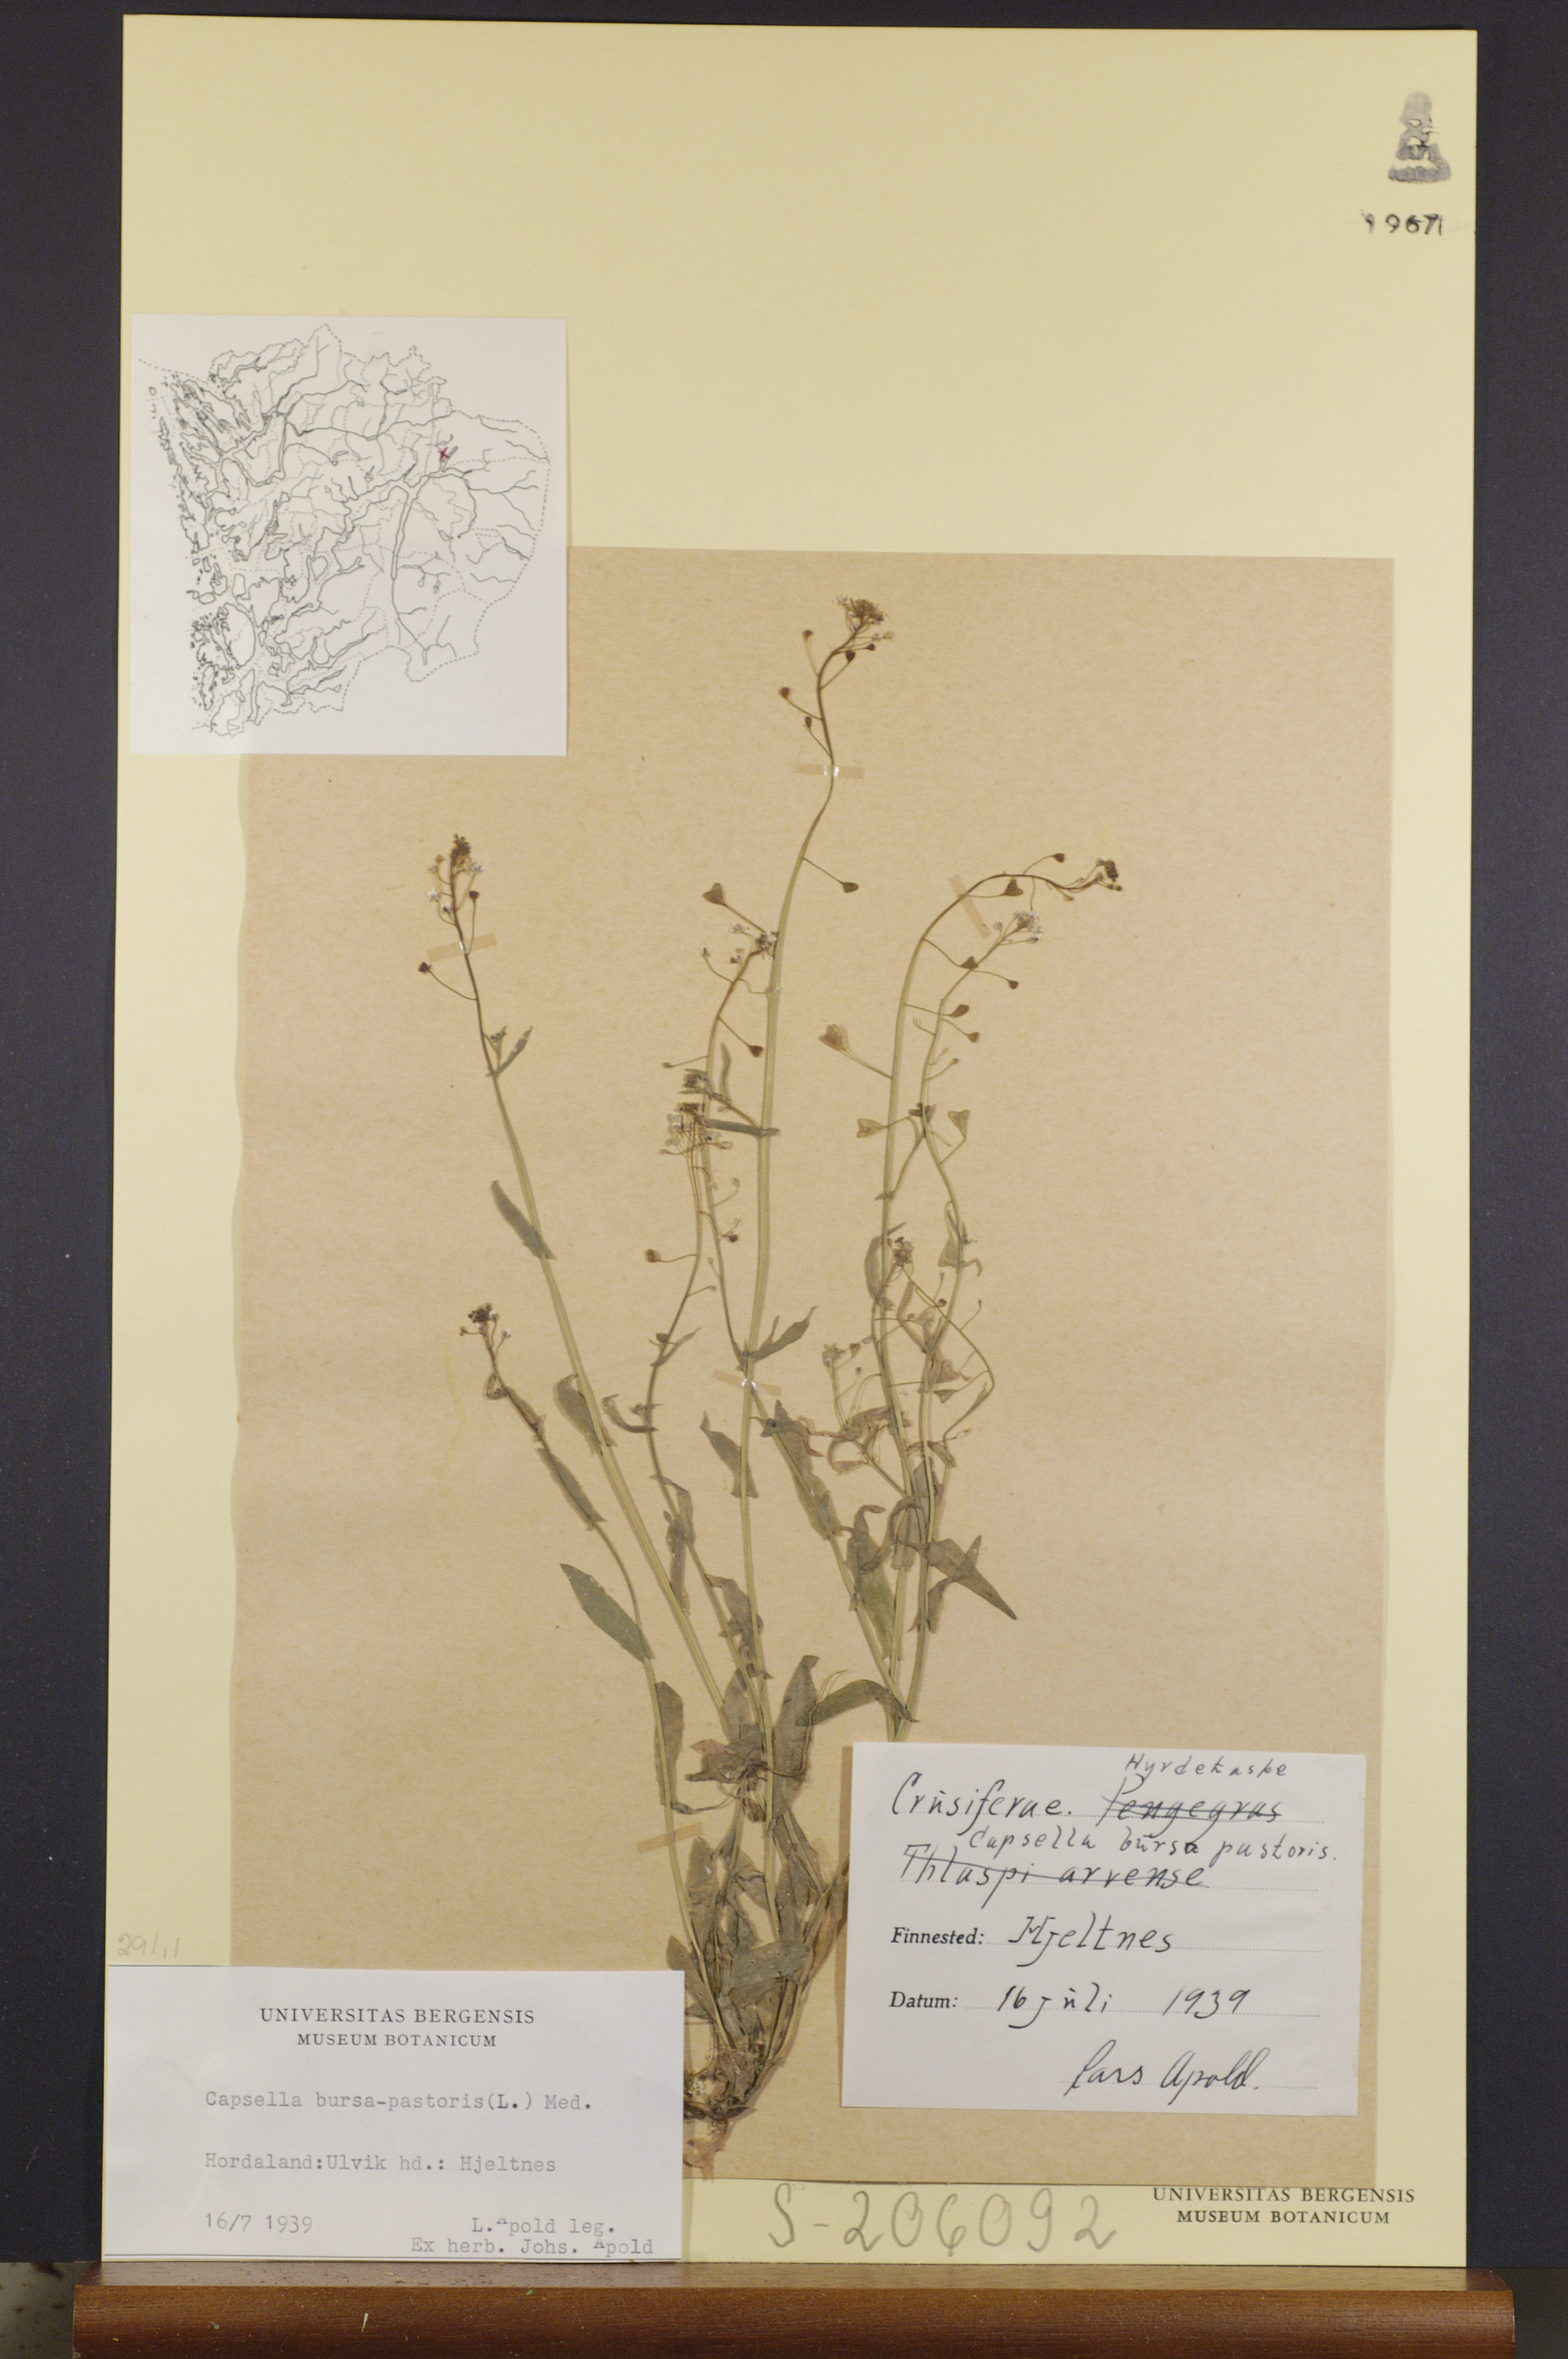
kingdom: Plantae
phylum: Tracheophyta
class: Magnoliopsida
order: Brassicales
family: Brassicaceae
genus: Capsella
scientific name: Capsella bursa-pastoris
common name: Shepherd's purse
